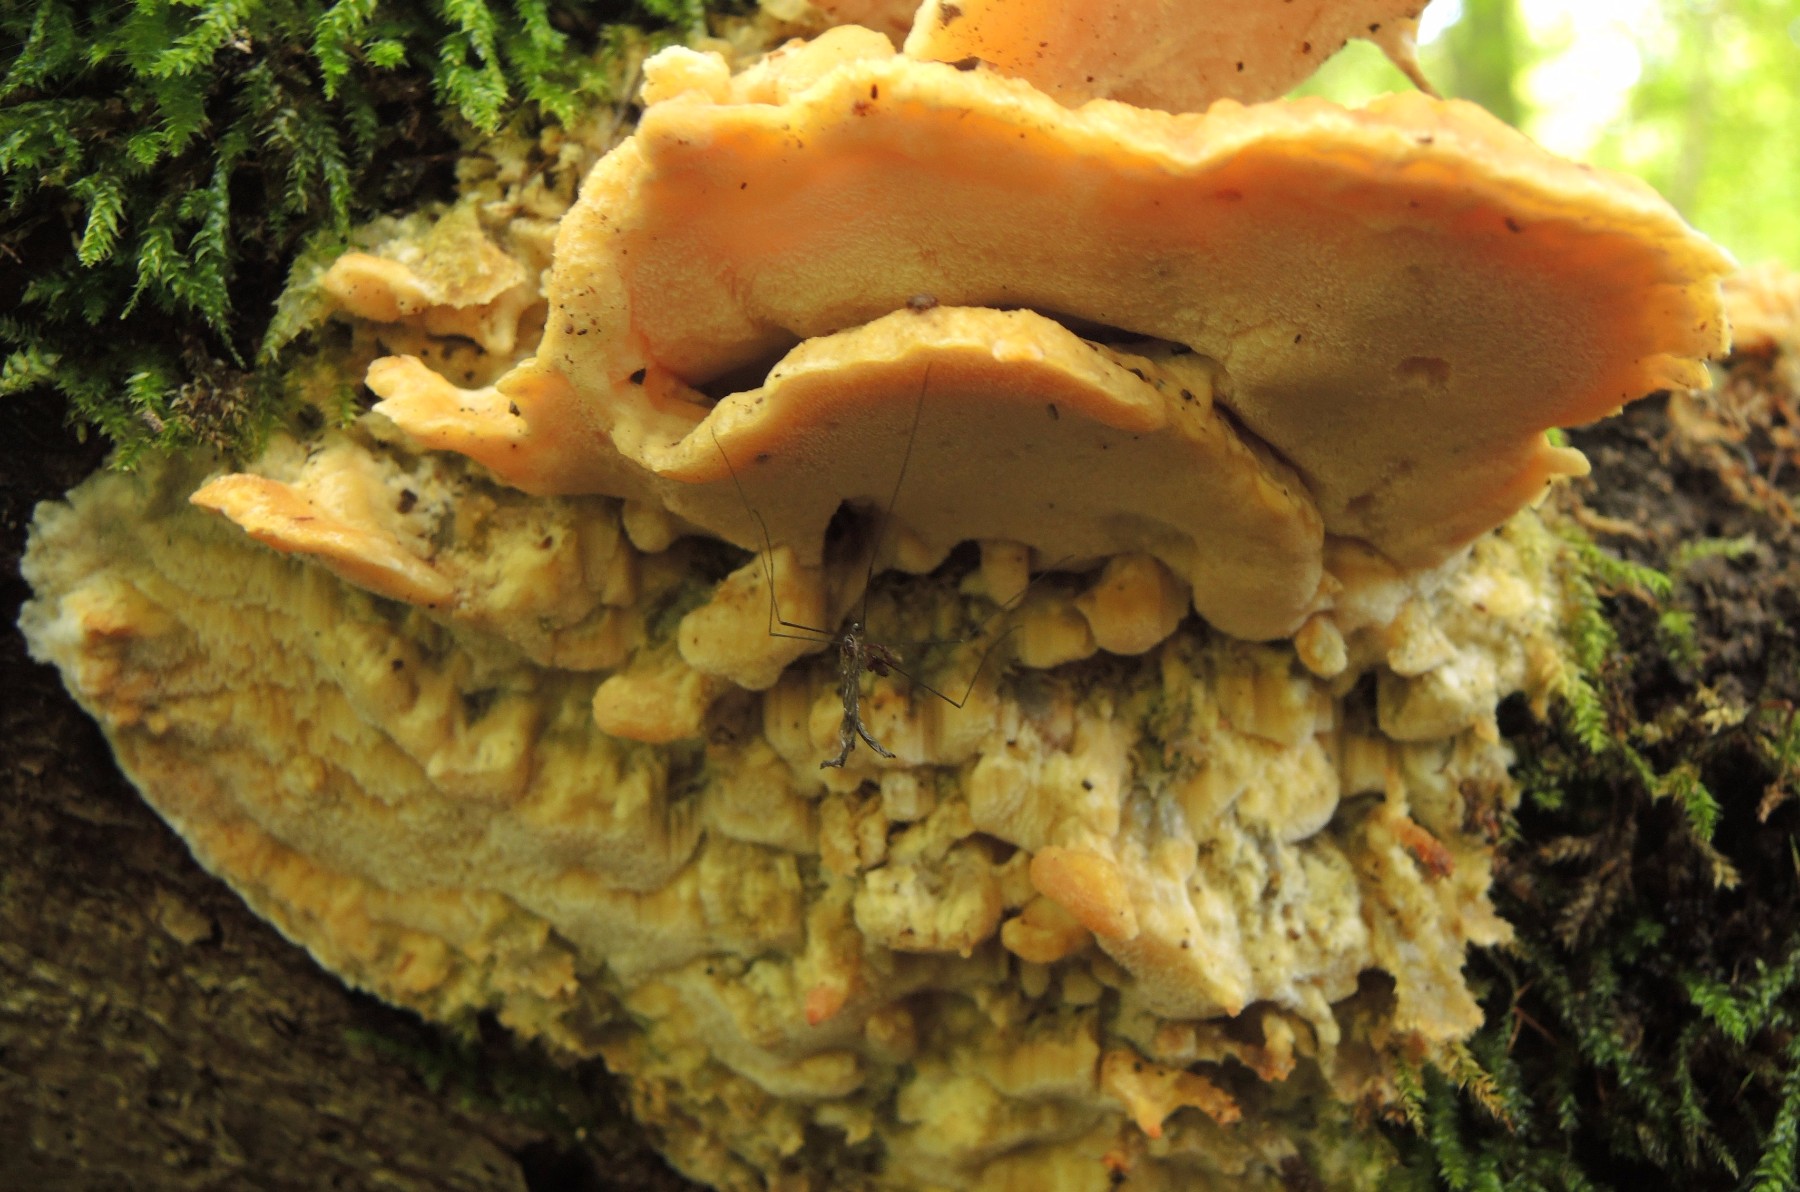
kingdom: Fungi
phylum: Basidiomycota
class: Agaricomycetes
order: Polyporales
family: Steccherinaceae
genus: Antrodiella
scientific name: Antrodiella mentschulensis
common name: abrikosporesvamp
